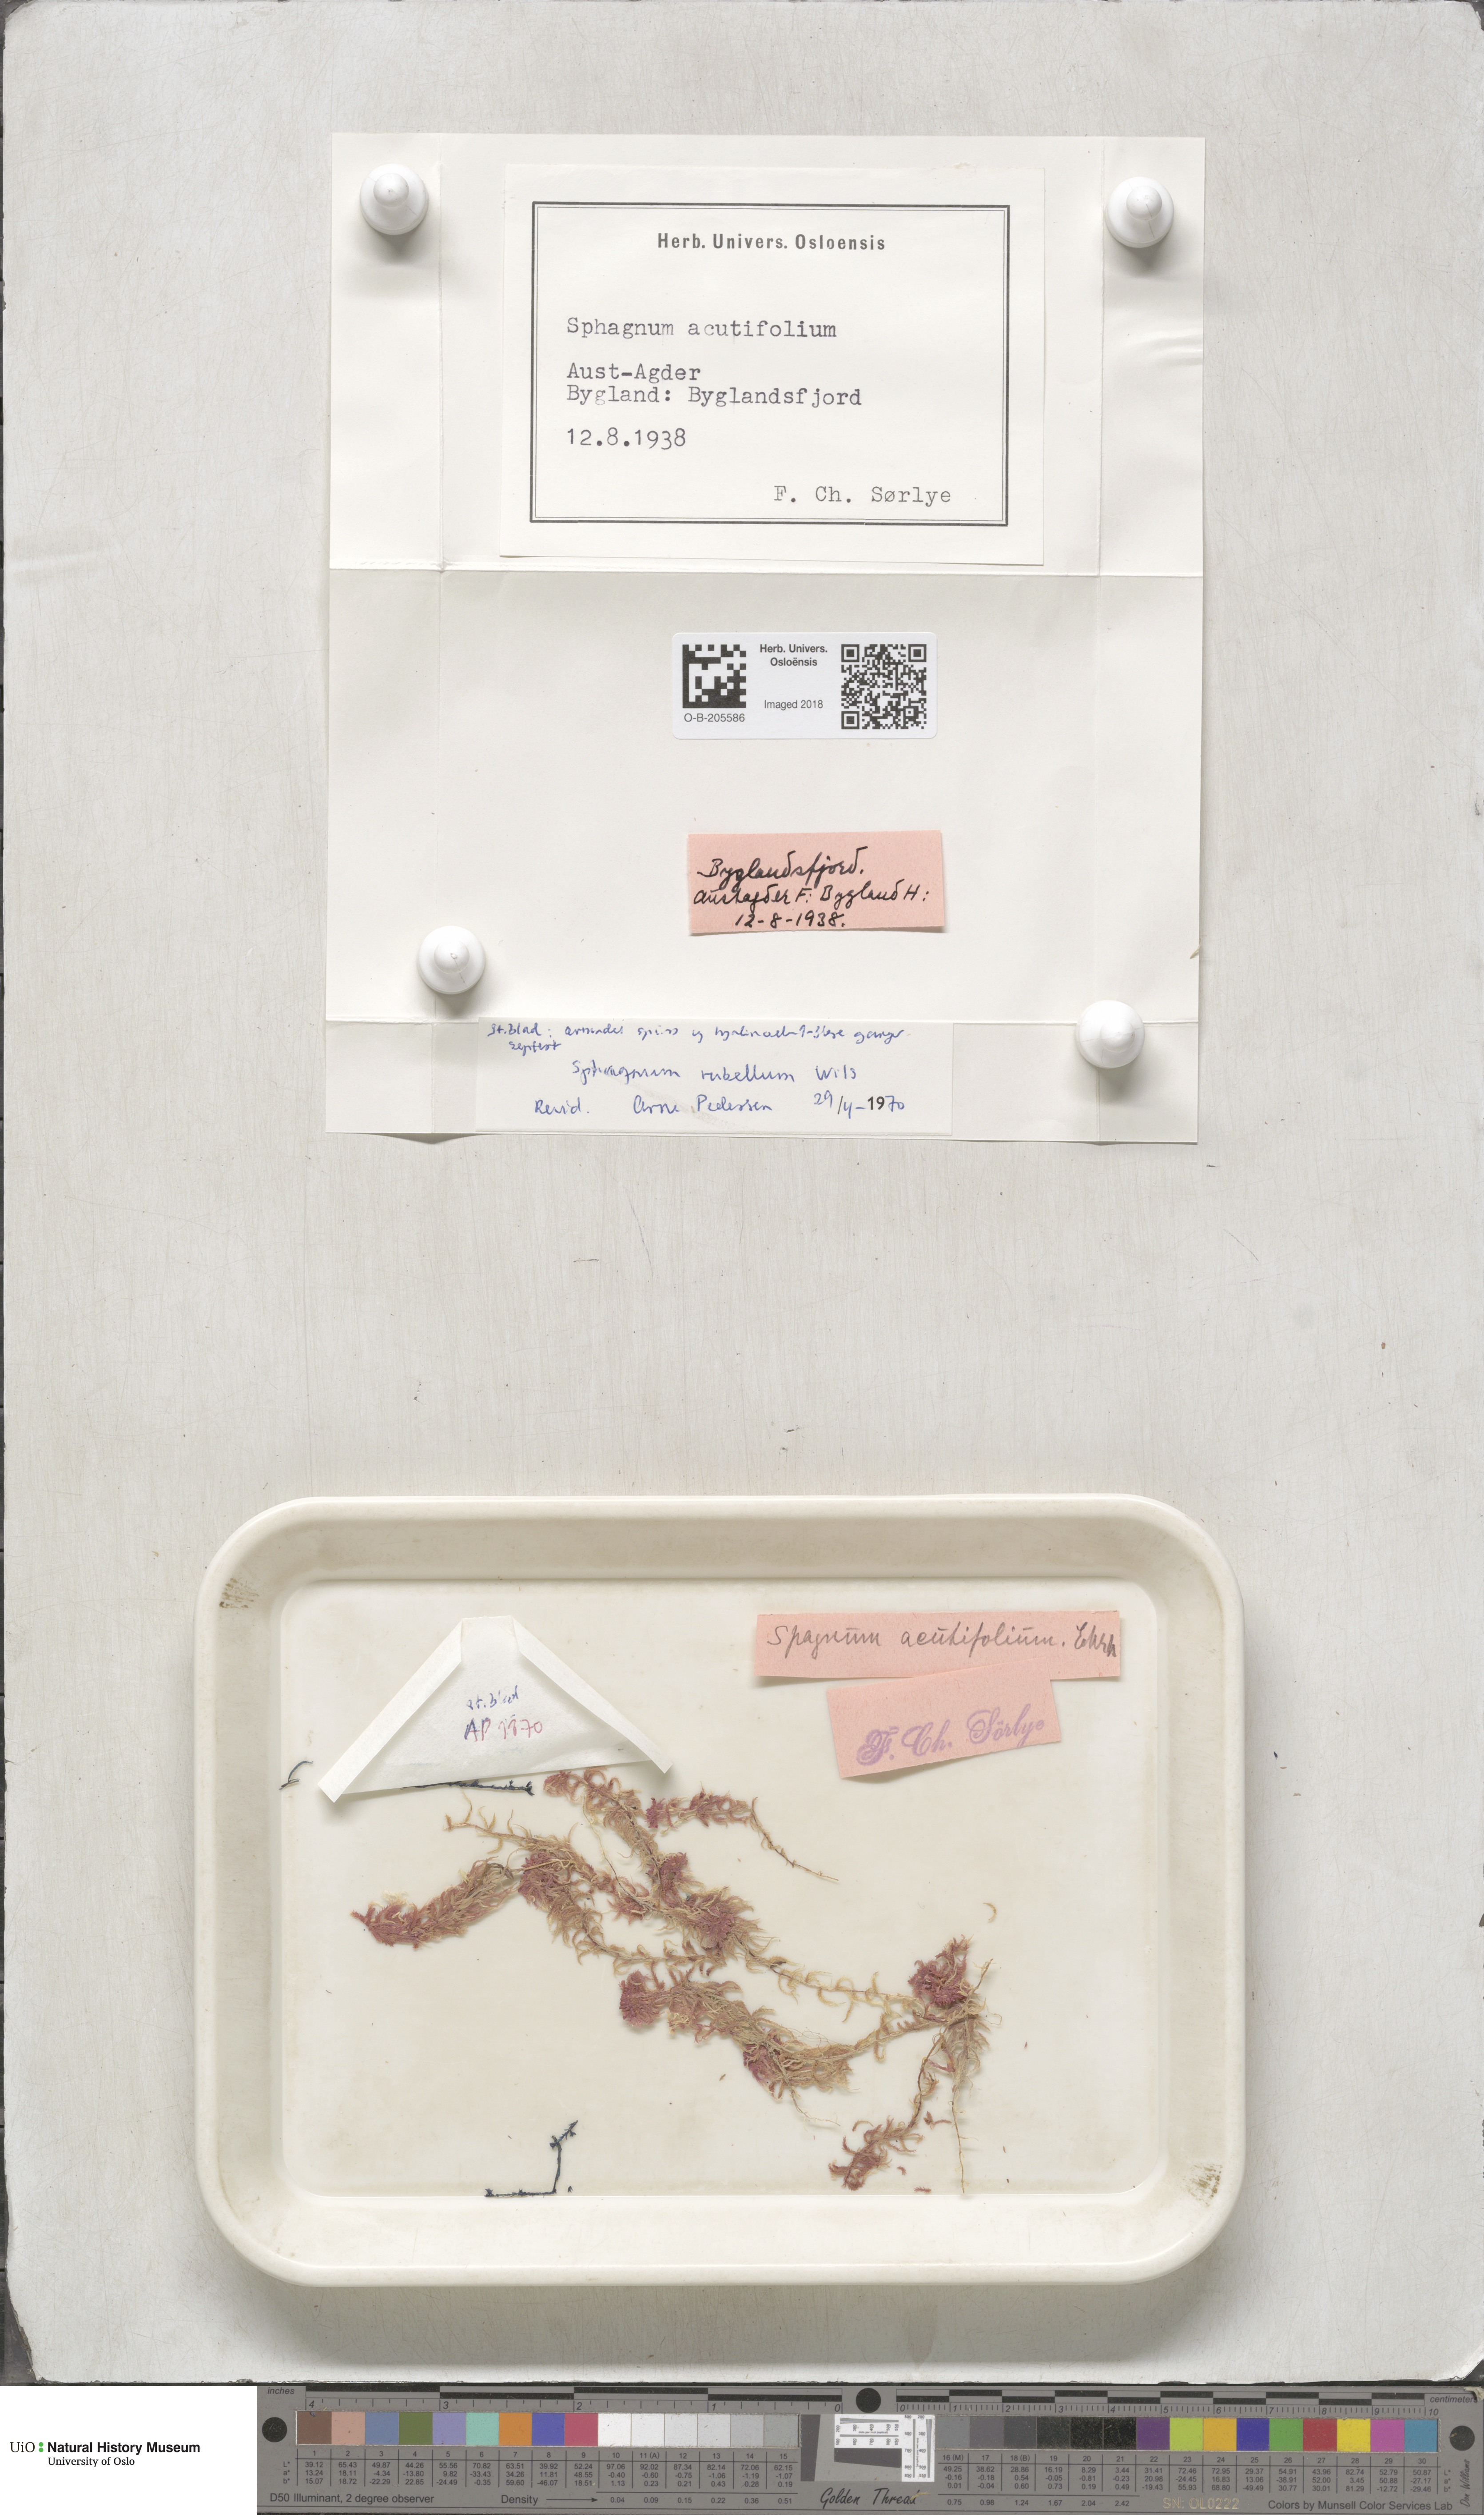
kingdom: Plantae
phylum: Bryophyta
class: Sphagnopsida
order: Sphagnales
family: Sphagnaceae
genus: Sphagnum
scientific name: Sphagnum rubellum
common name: Red peat moss
